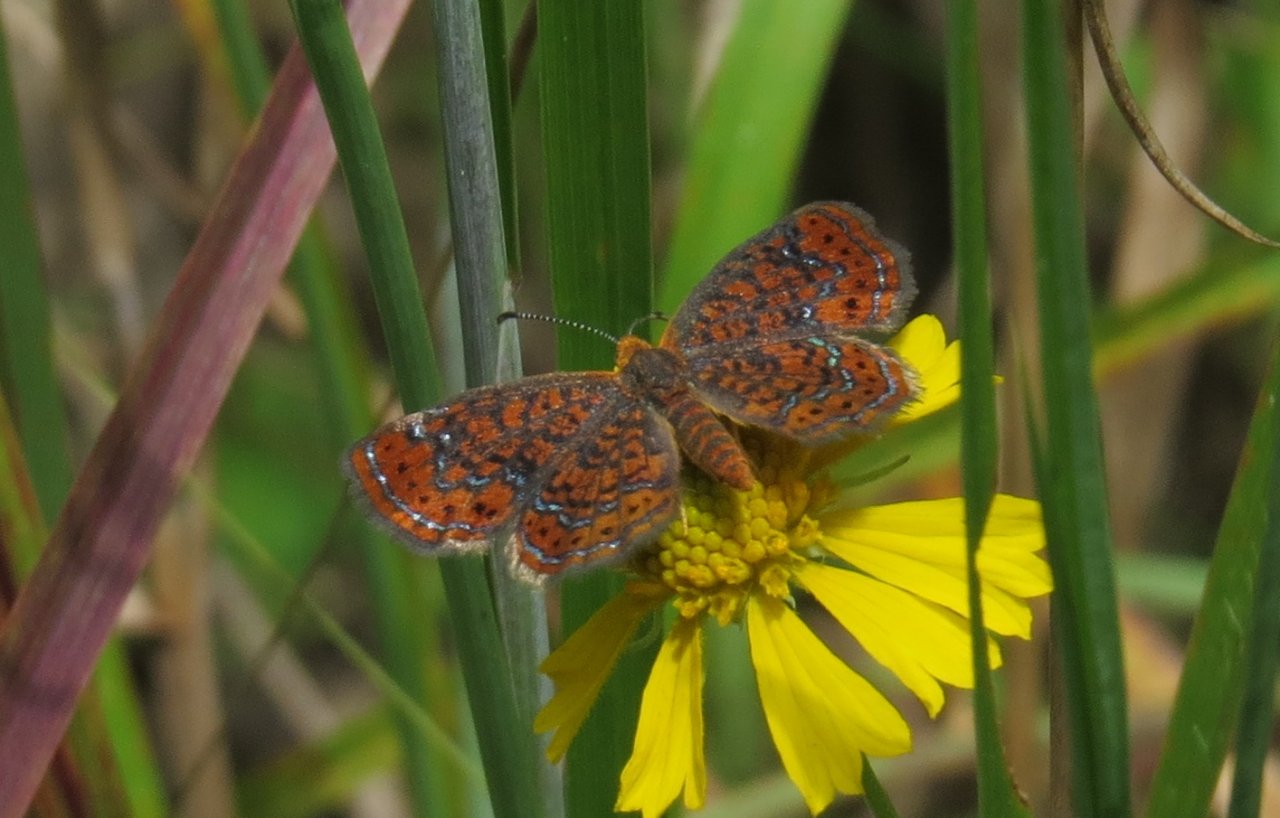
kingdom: Animalia
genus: Calephelis
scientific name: Calephelis virginiensis
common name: Little Metalmark
